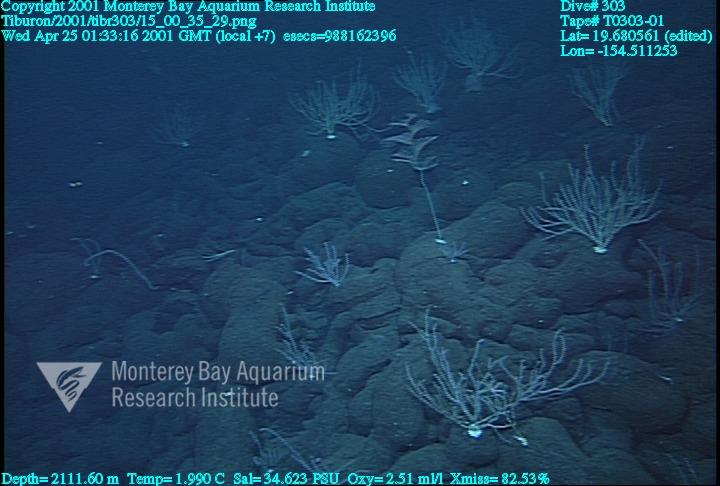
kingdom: Animalia
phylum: Porifera
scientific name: Porifera
